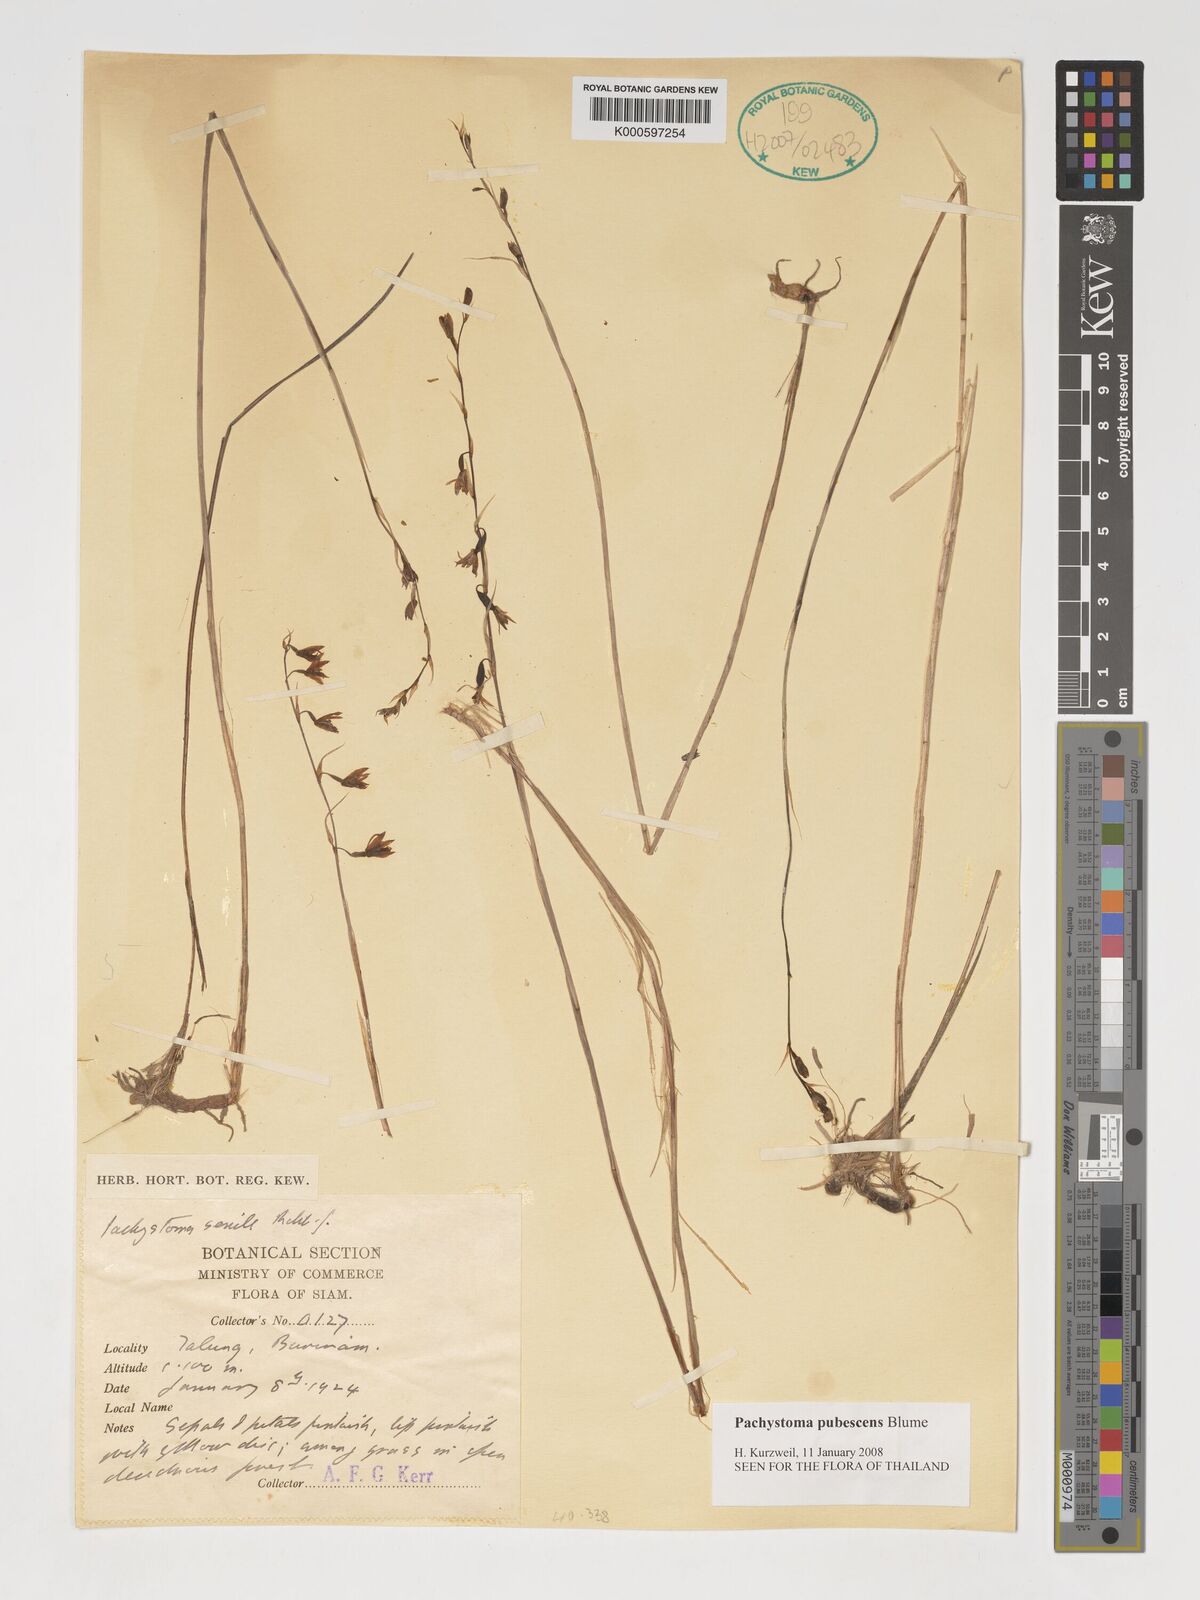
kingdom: Plantae
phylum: Tracheophyta
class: Liliopsida
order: Asparagales
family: Orchidaceae
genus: Pachystoma
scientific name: Pachystoma pubescens
